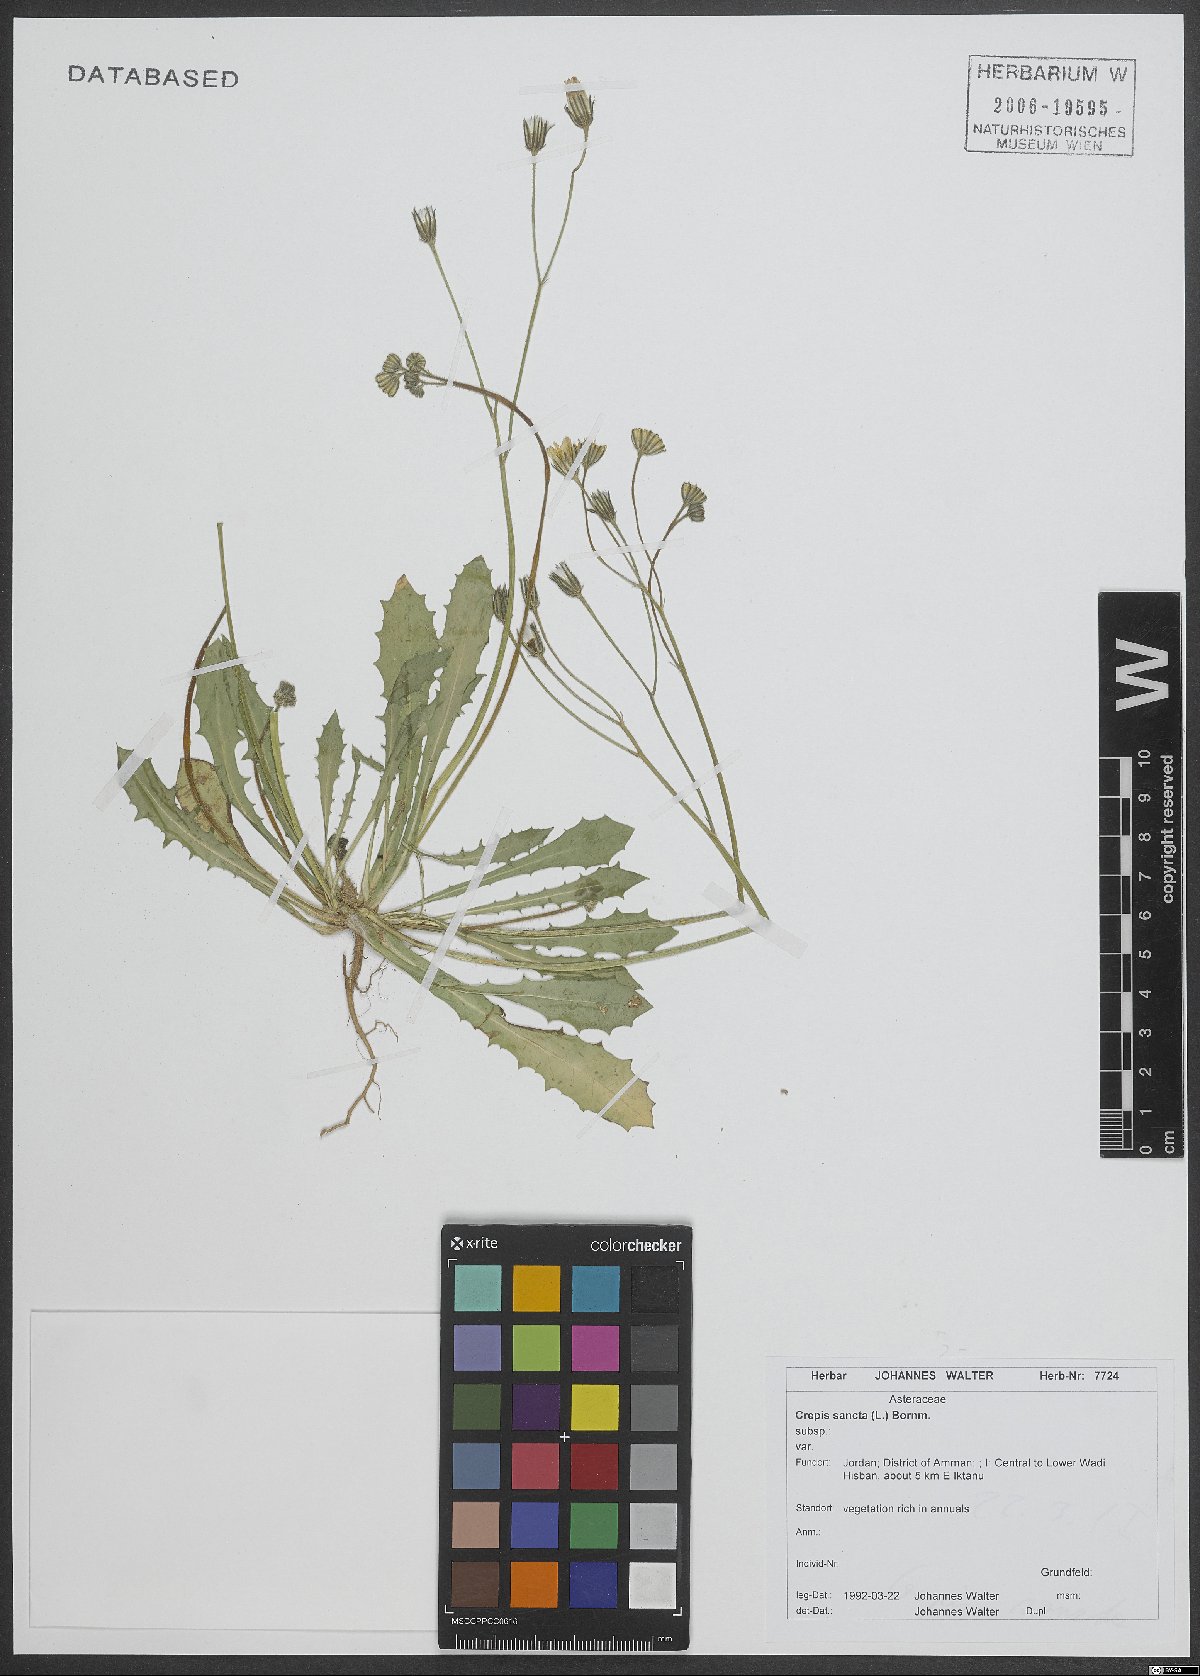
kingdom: Plantae
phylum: Tracheophyta
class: Magnoliopsida
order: Asterales
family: Asteraceae
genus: Crepis
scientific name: Crepis sancta
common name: Hawk's-beard
